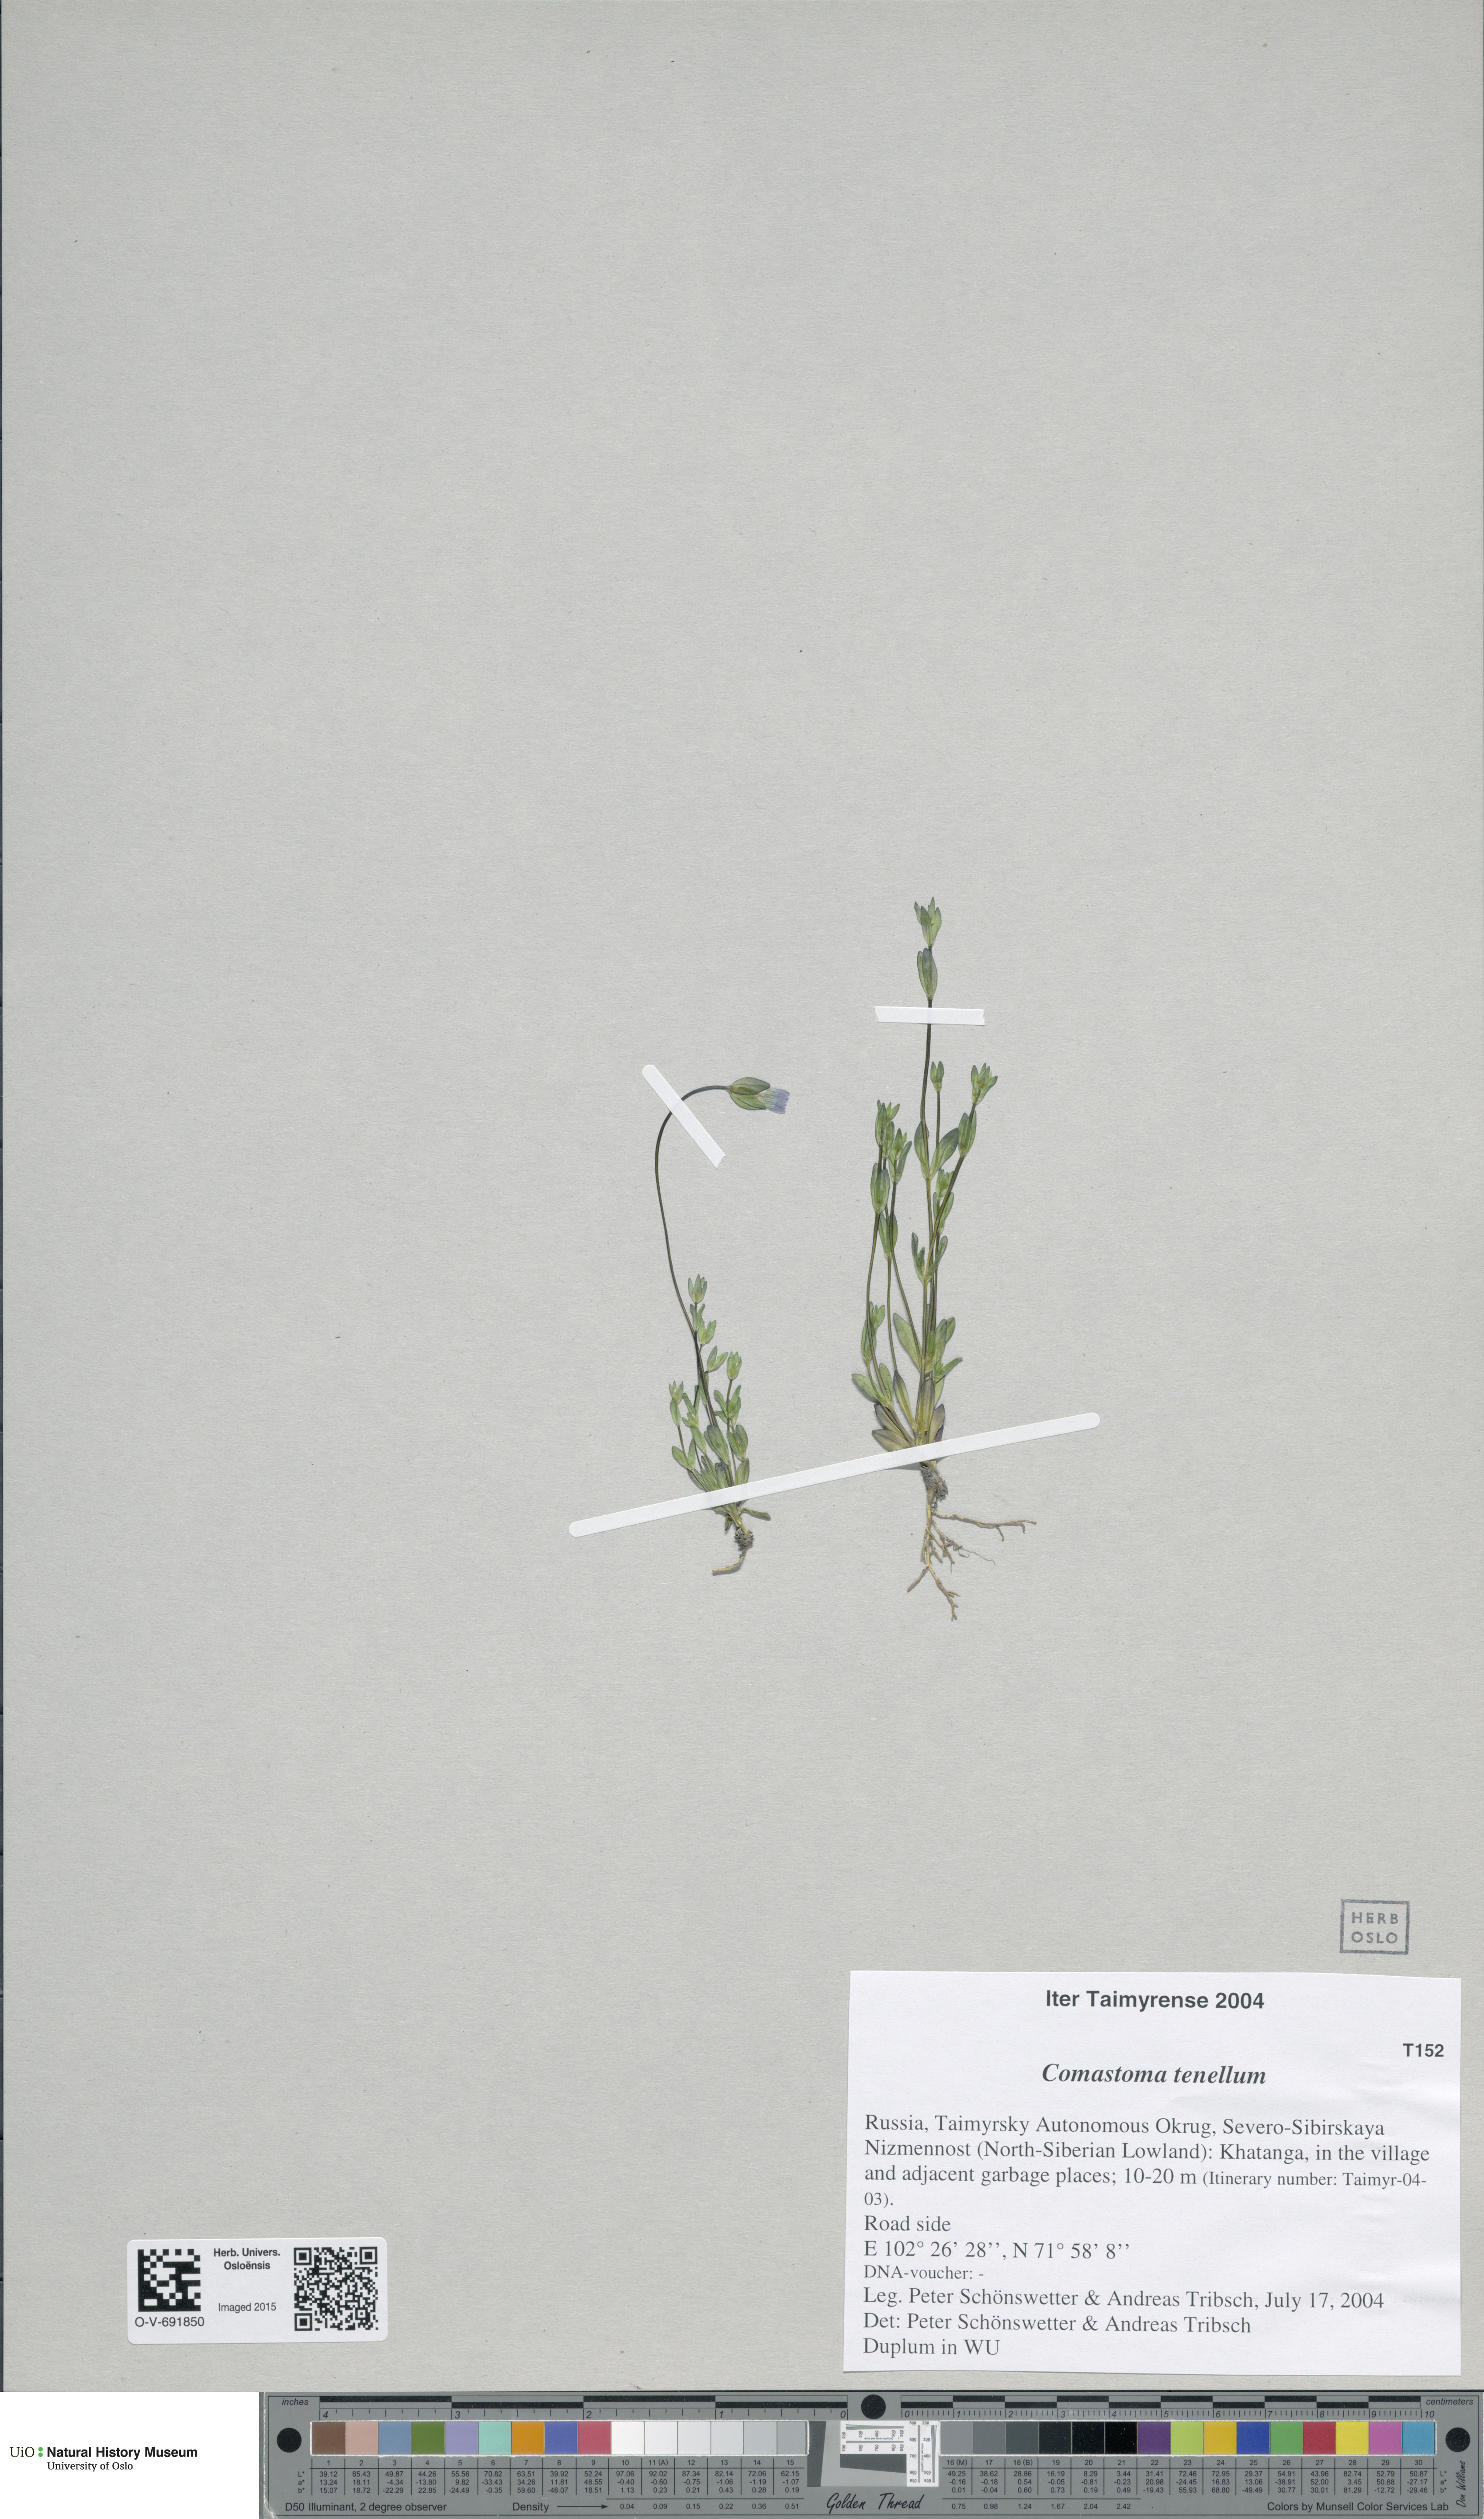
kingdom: Plantae
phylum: Tracheophyta
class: Magnoliopsida
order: Gentianales
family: Gentianaceae
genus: Comastoma
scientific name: Comastoma tenellum
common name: Dane's dwarf gentian
